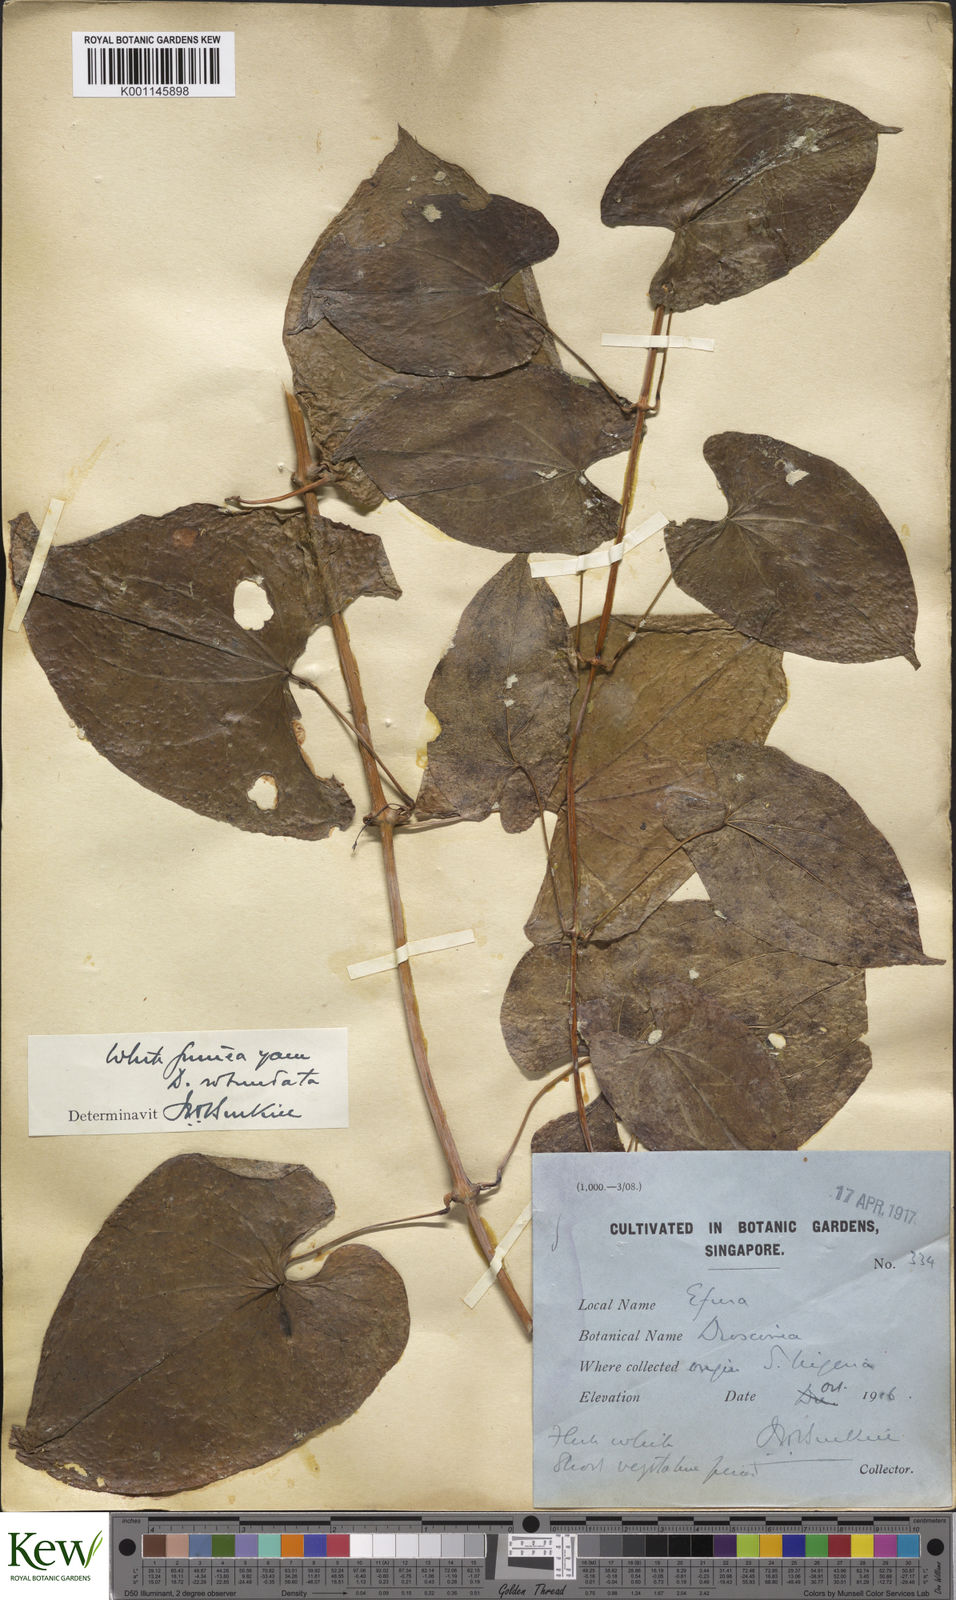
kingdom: Plantae
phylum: Tracheophyta
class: Liliopsida
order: Dioscoreales
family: Dioscoreaceae
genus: Dioscorea
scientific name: Dioscorea cayenensis
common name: Attoto yam
